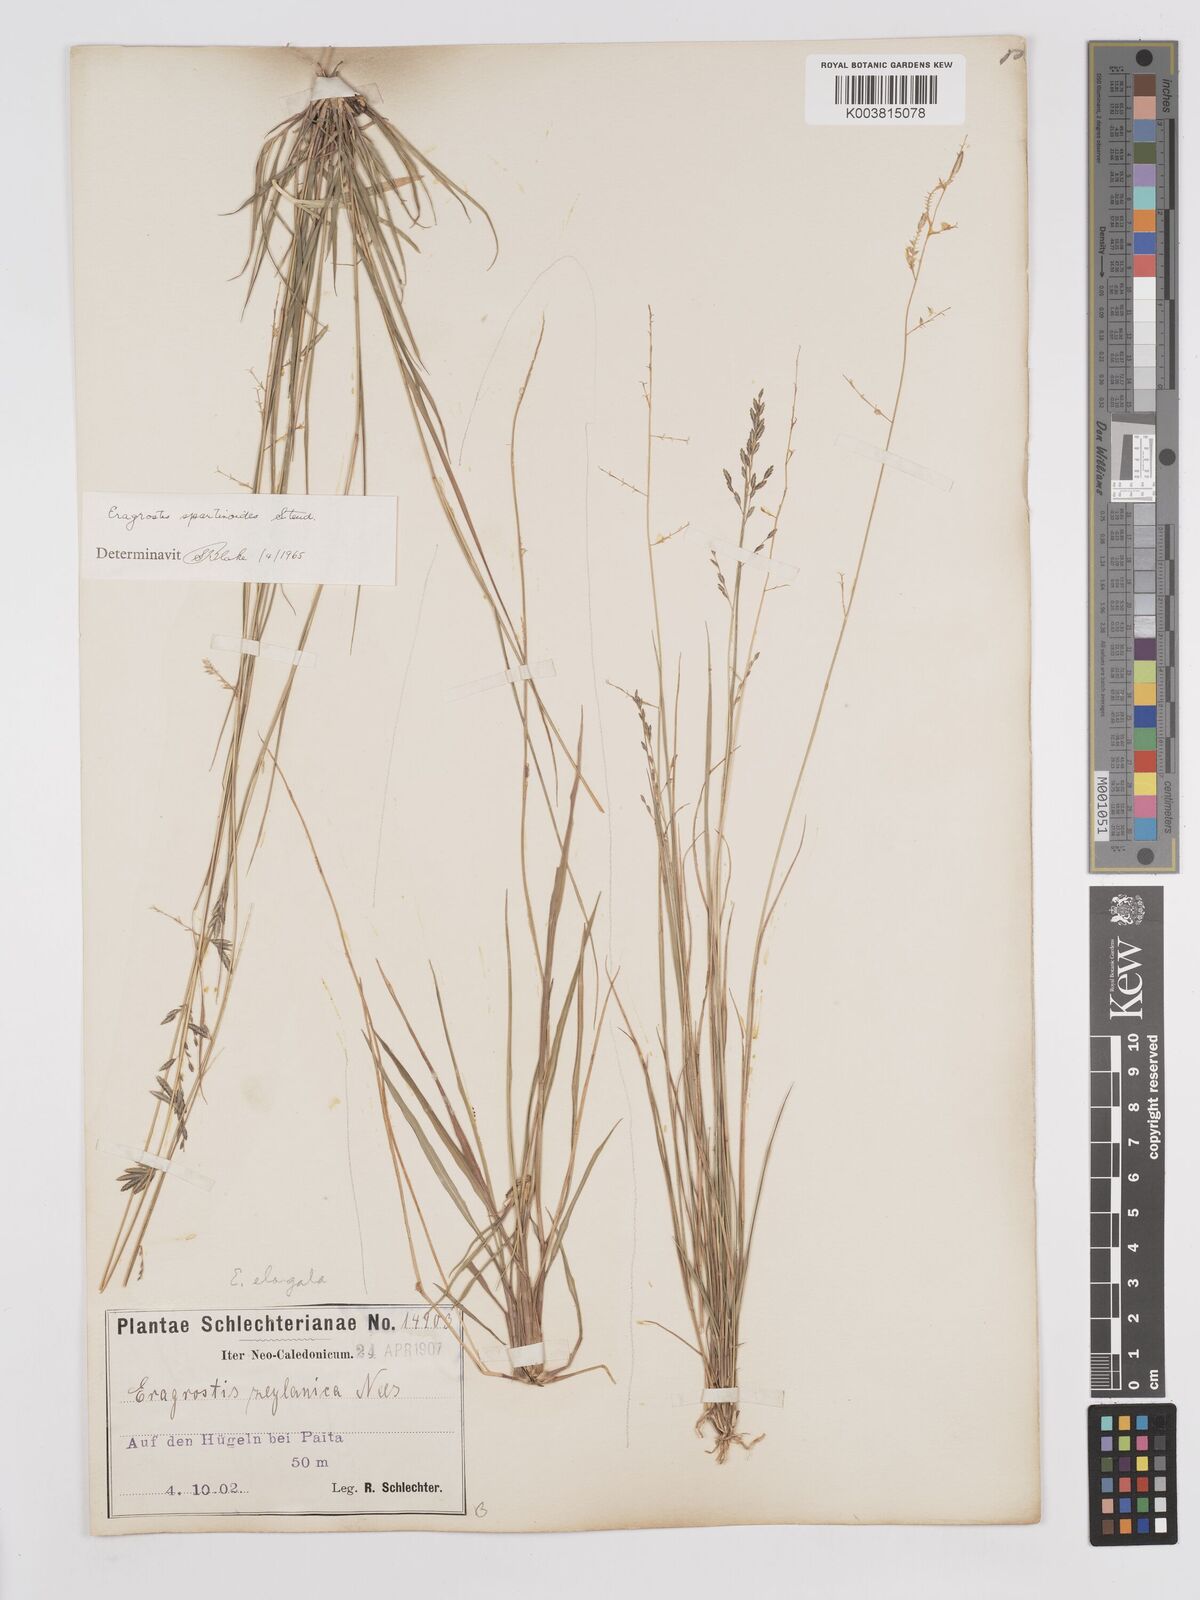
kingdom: Plantae
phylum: Tracheophyta
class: Liliopsida
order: Poales
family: Poaceae
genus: Eragrostis
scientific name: Eragrostis brownii
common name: Lovegrass
